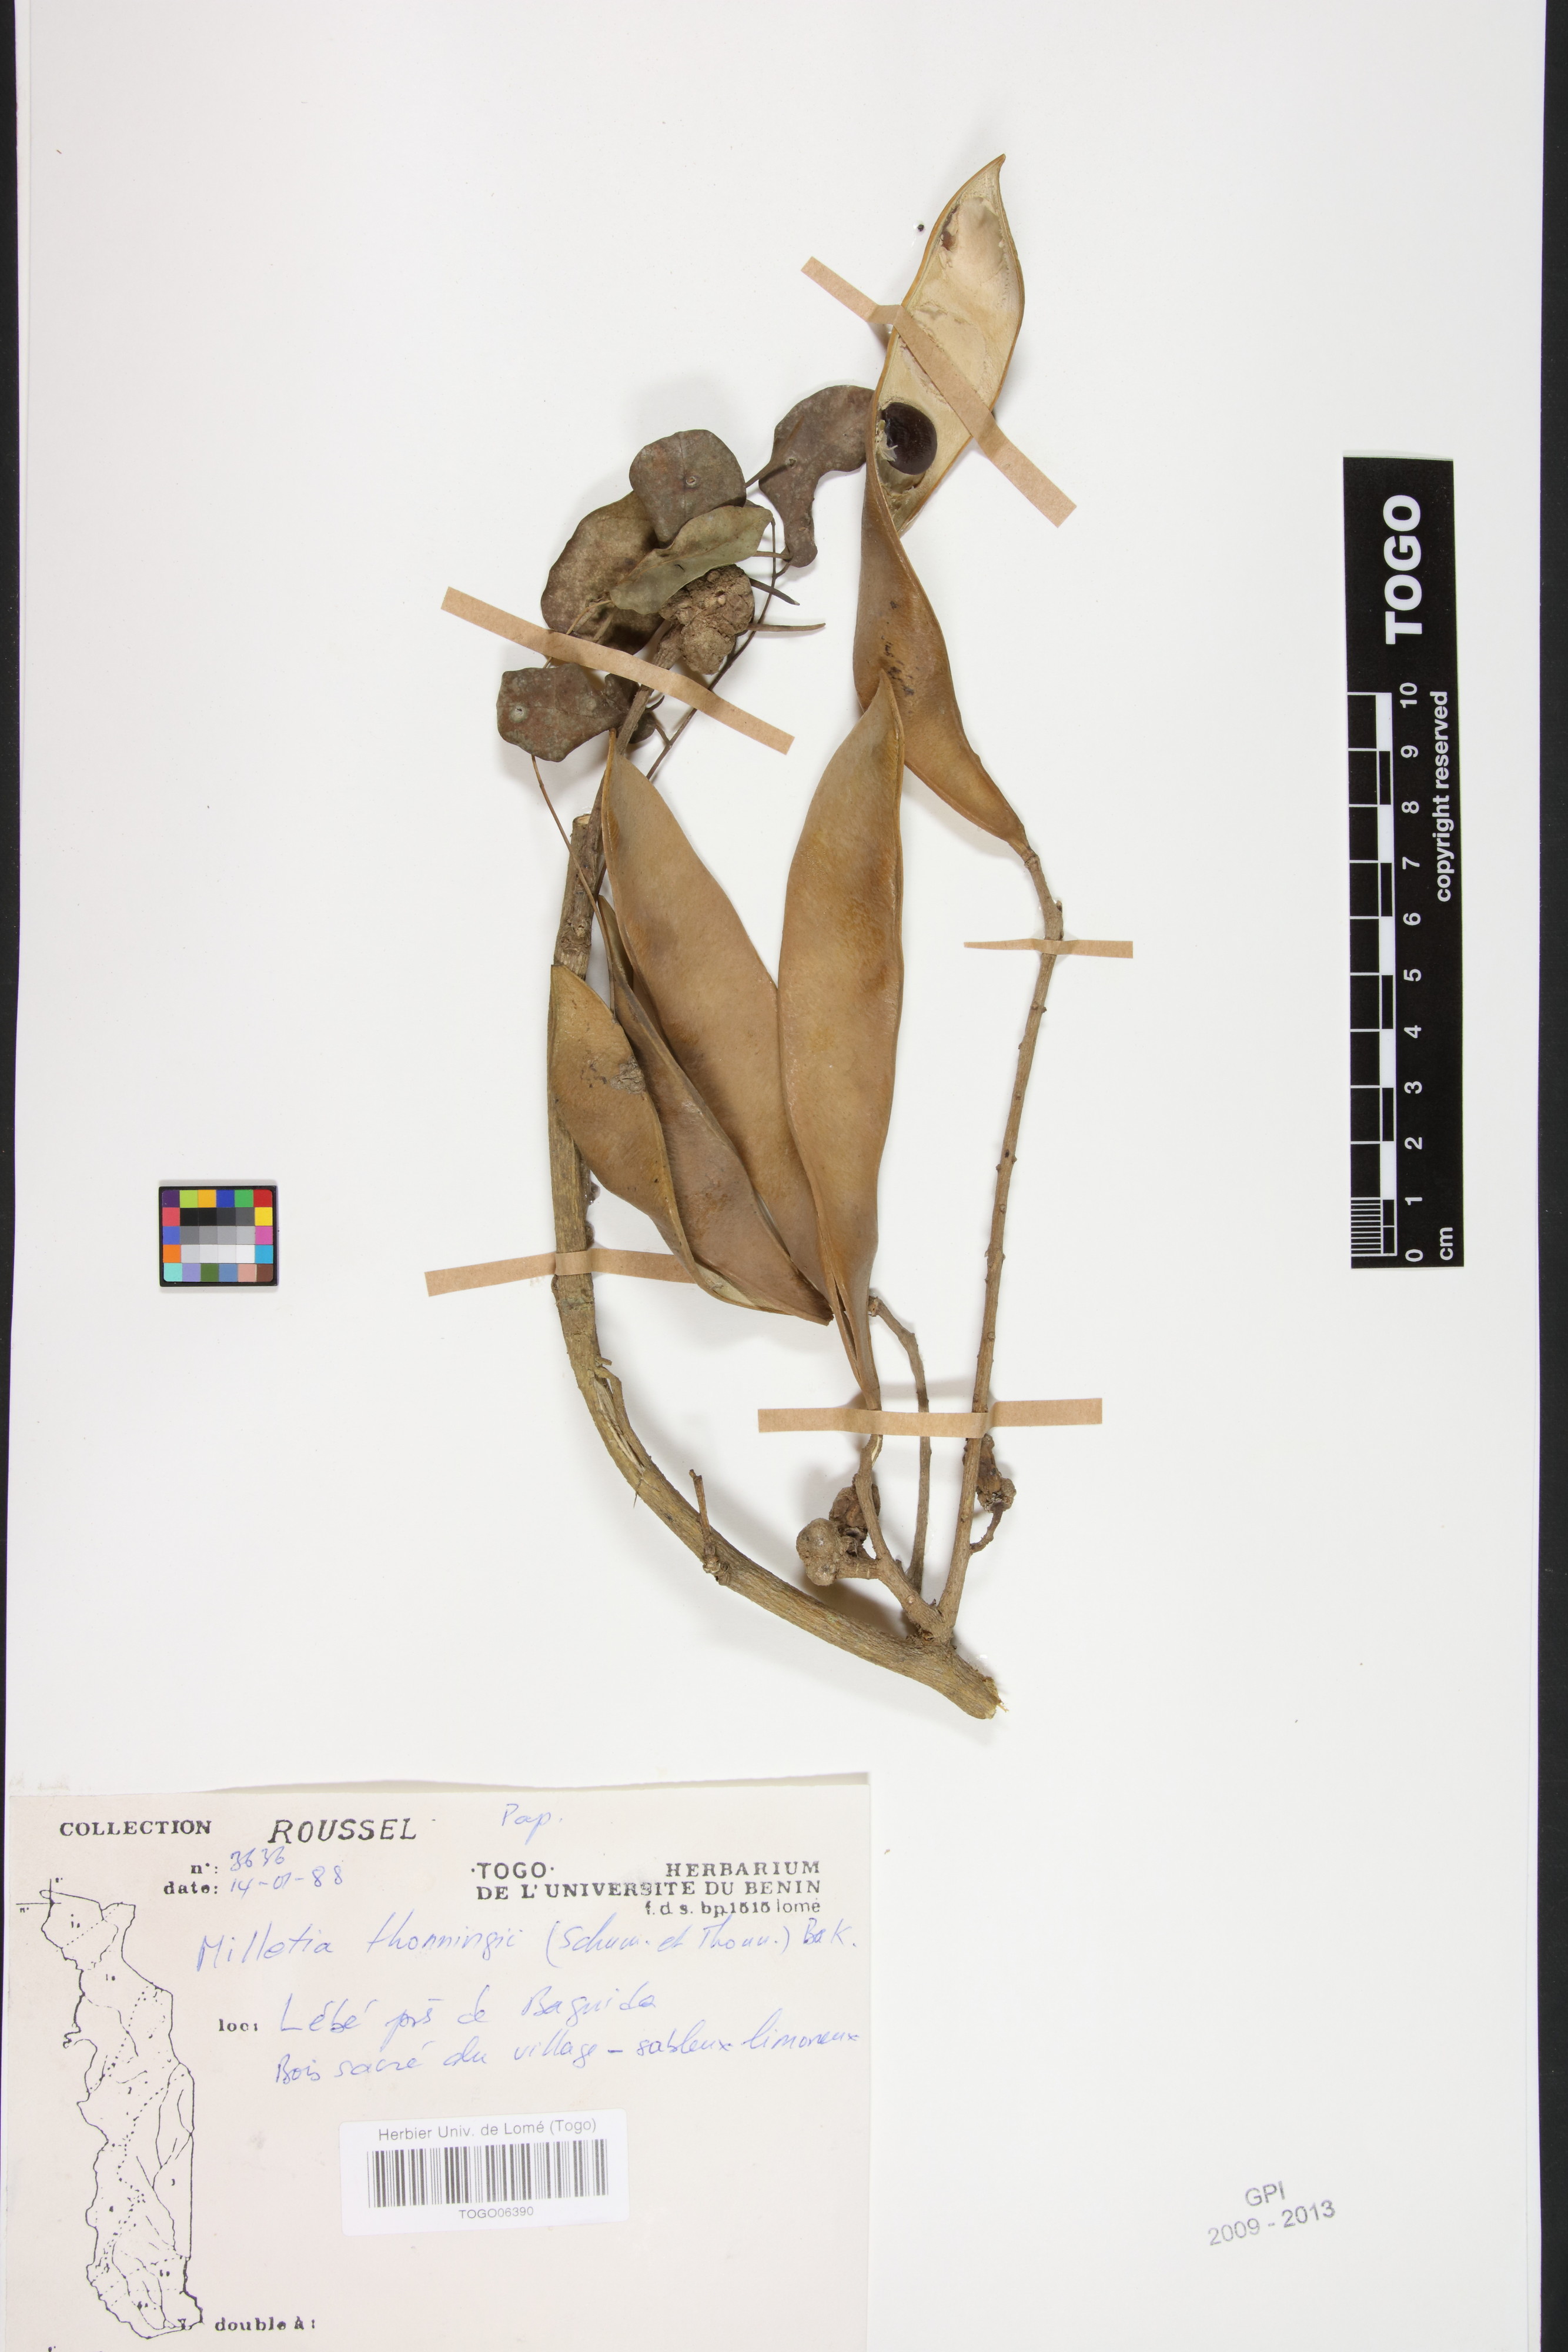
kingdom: Plantae
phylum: Tracheophyta
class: Magnoliopsida
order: Fabales
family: Fabaceae
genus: Millettia
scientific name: Millettia thonningii
